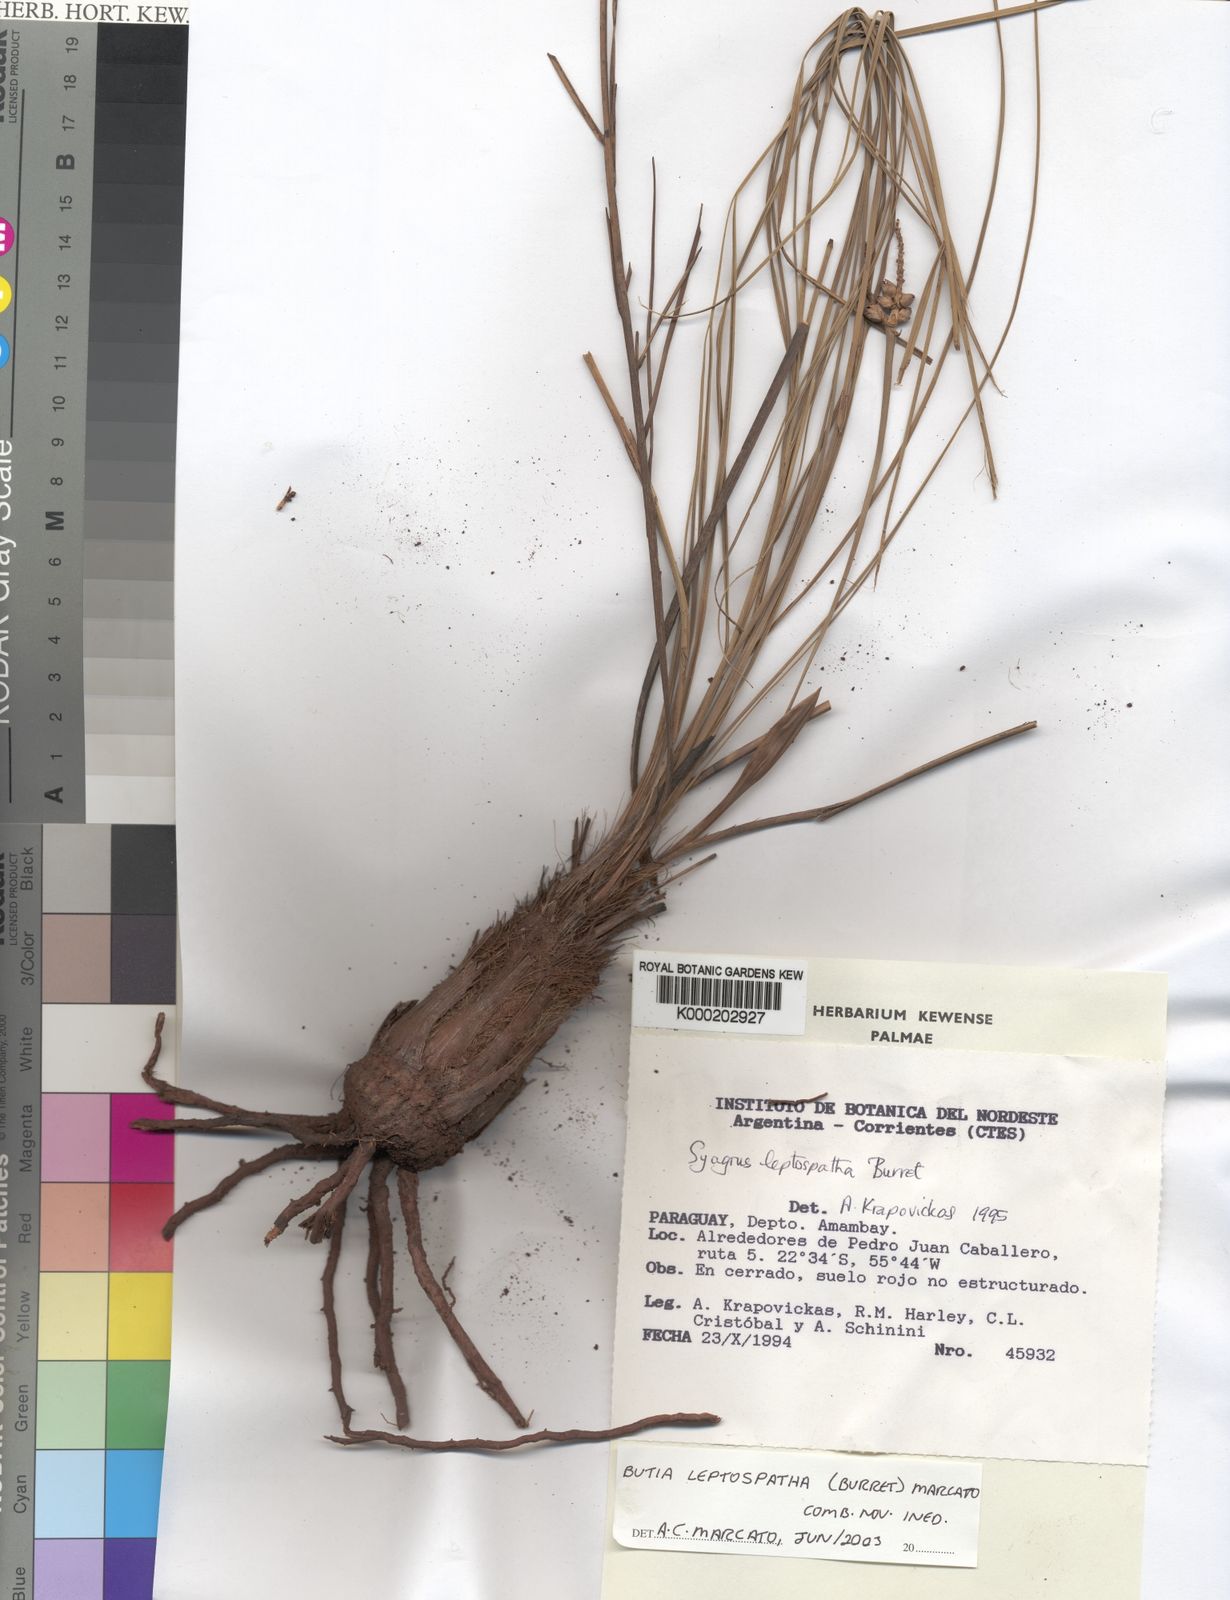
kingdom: Plantae
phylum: Tracheophyta
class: Liliopsida
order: Arecales
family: Arecaceae
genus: Butia
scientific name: Butia leptospatha
